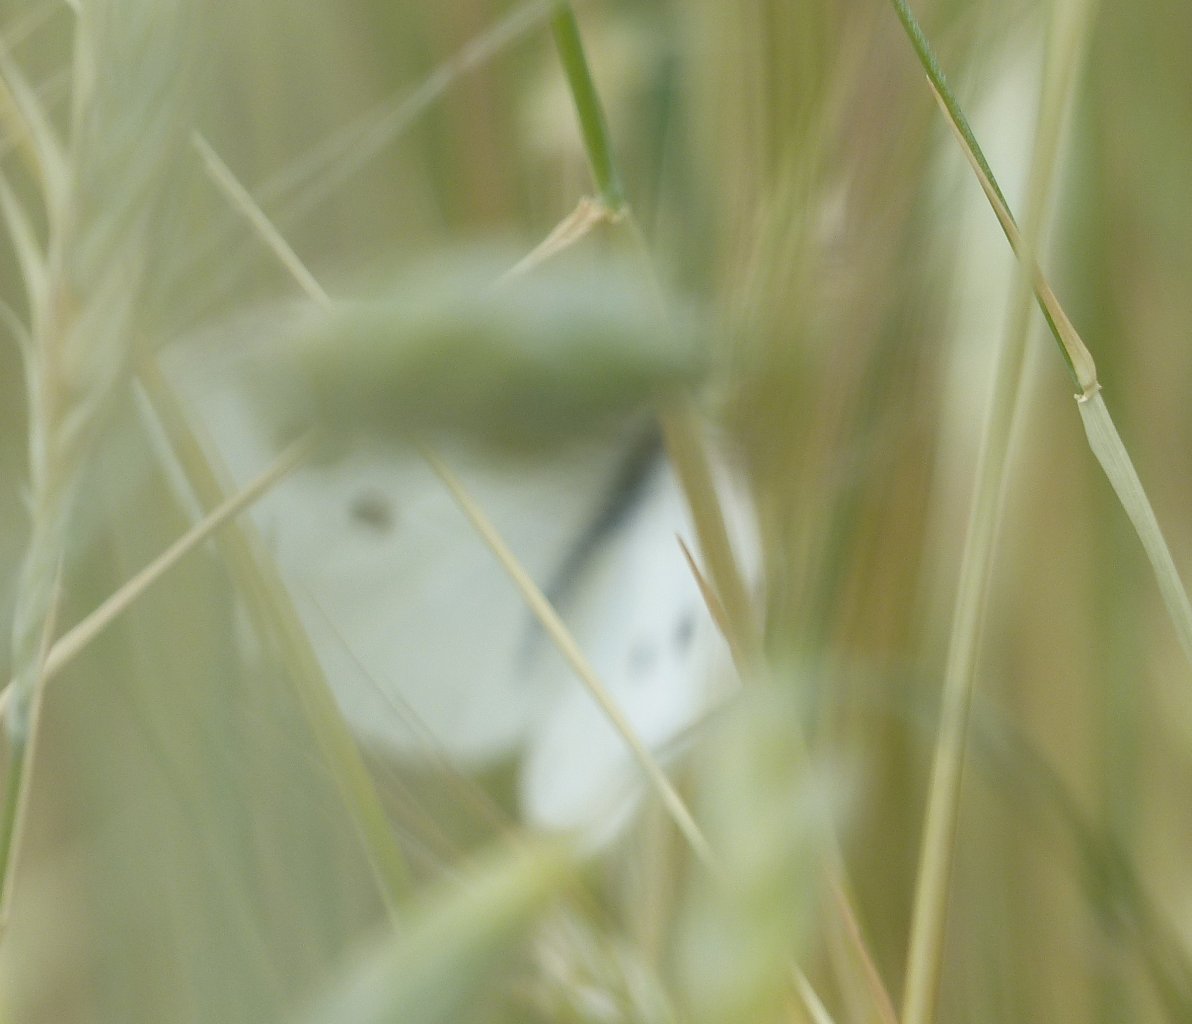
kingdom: Animalia
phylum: Arthropoda
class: Insecta
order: Lepidoptera
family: Pieridae
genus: Pieris
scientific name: Pieris rapae
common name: Cabbage White
